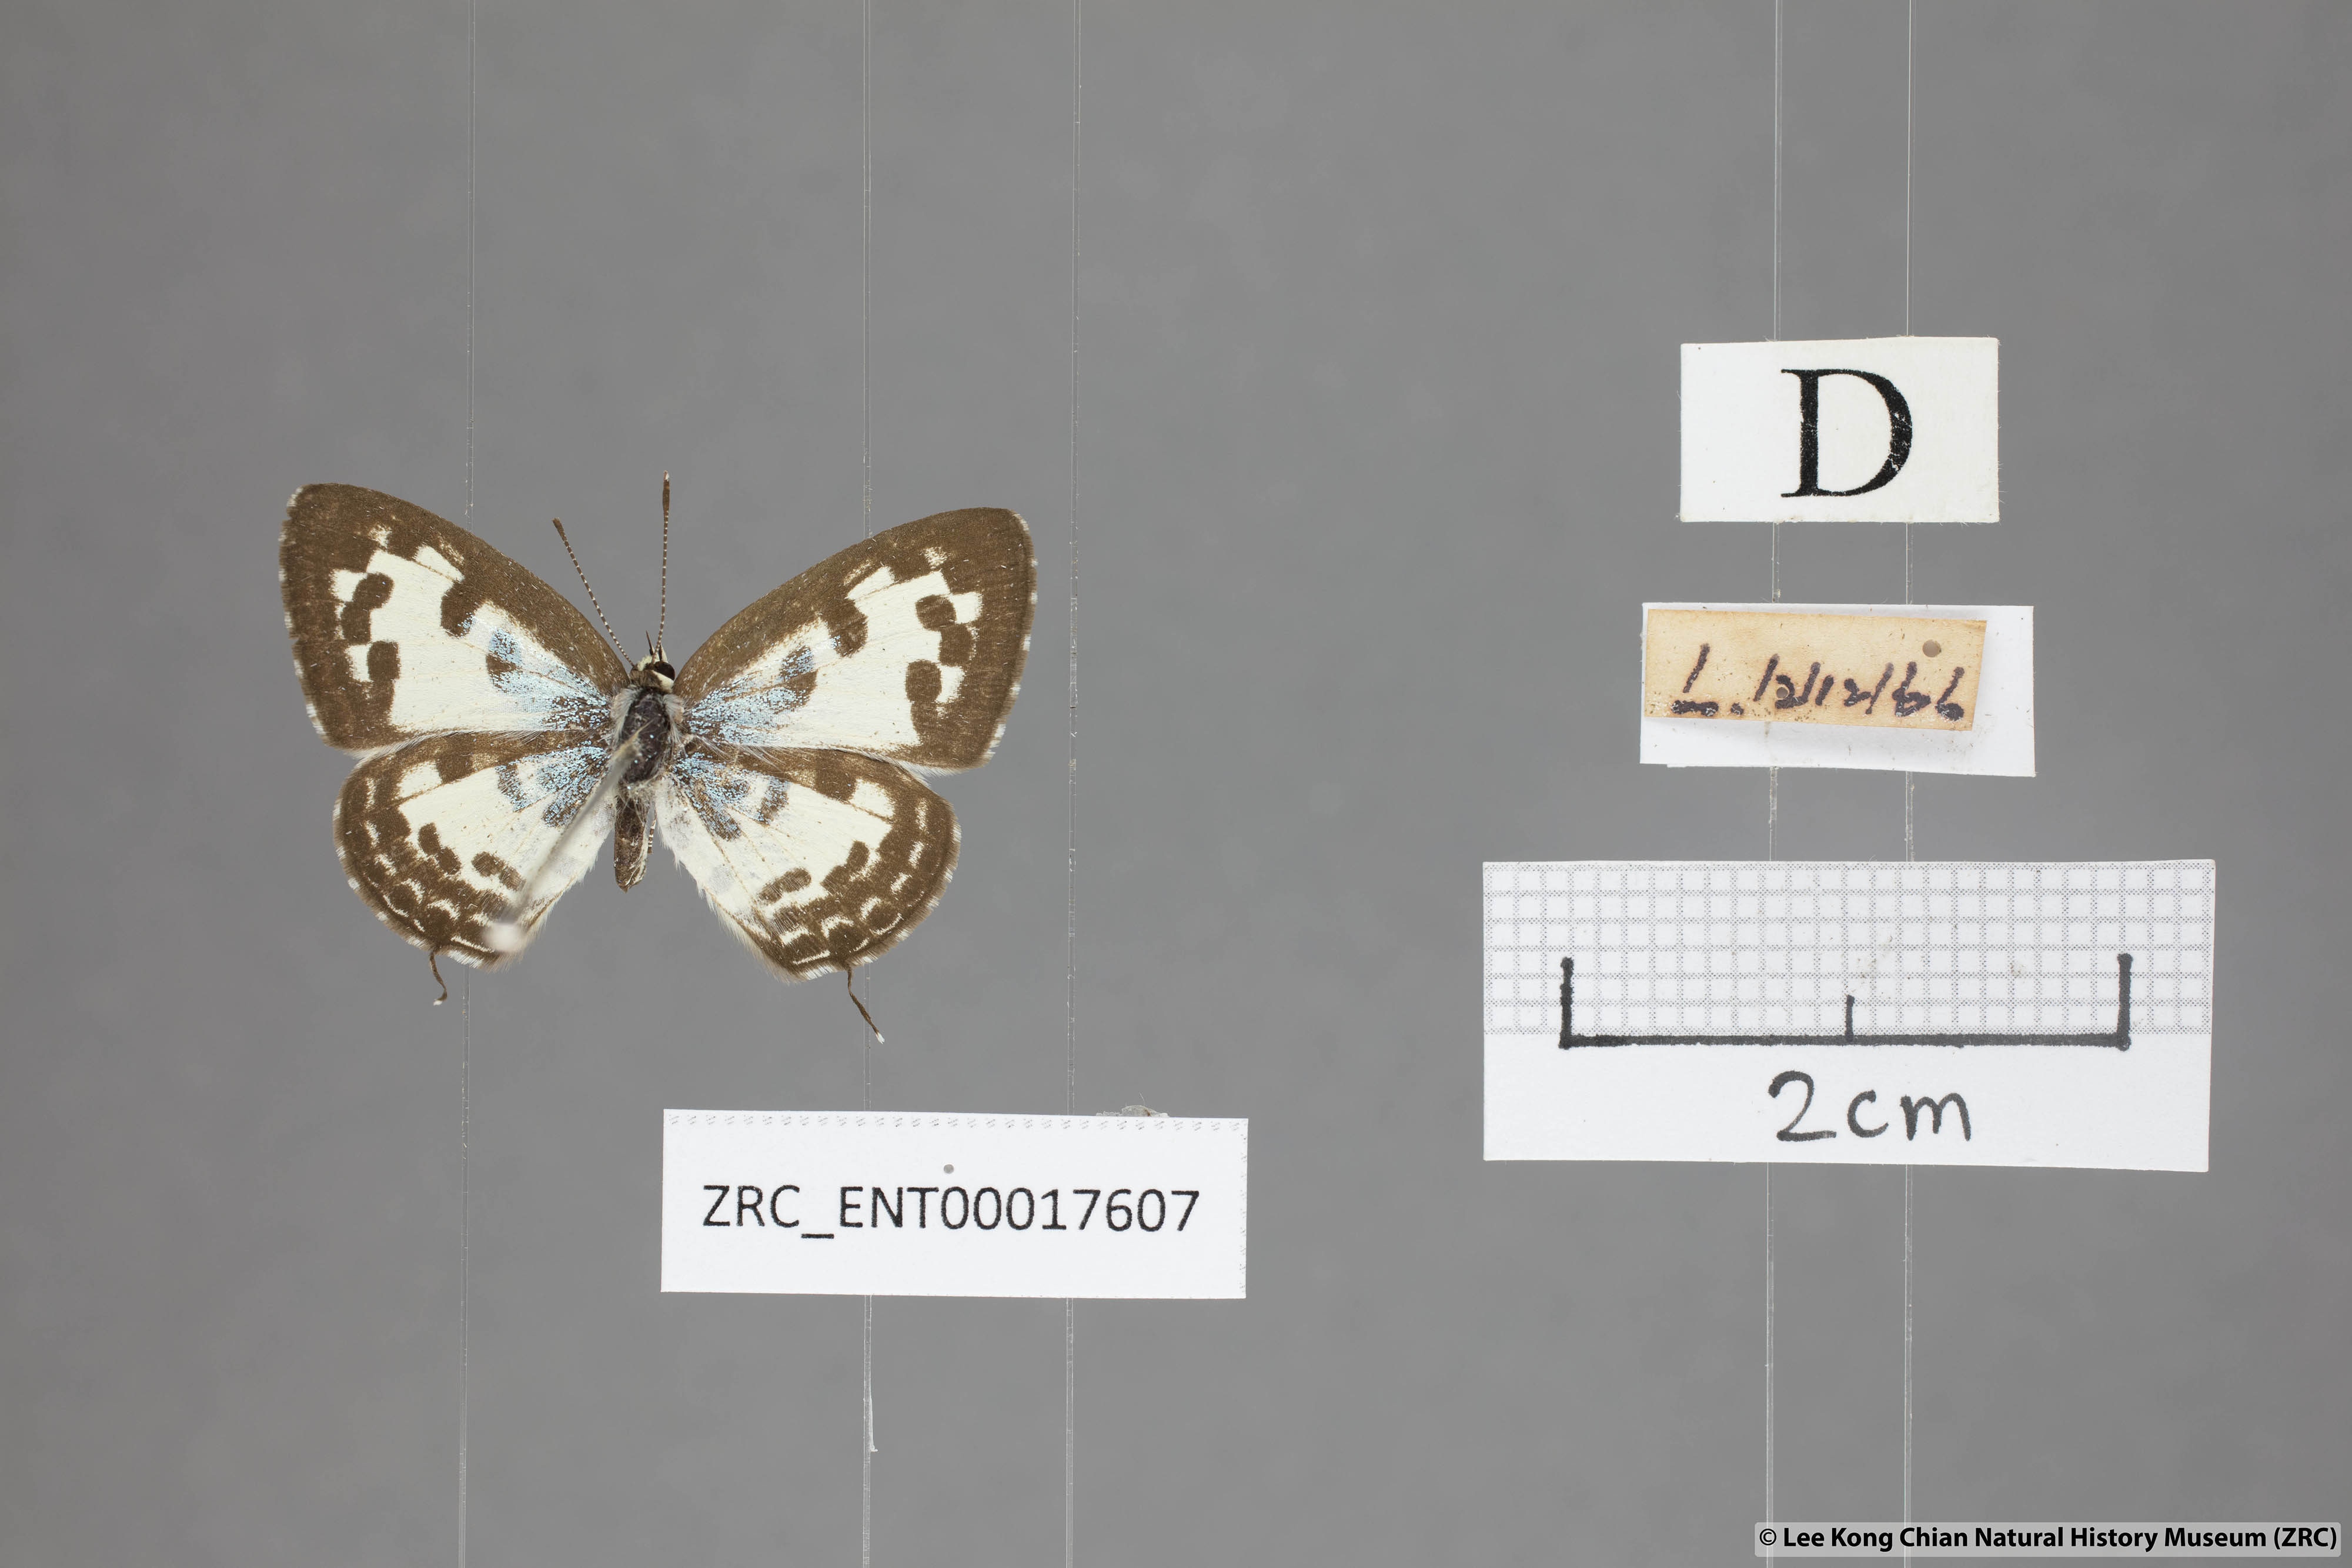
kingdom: Animalia
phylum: Arthropoda
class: Insecta
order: Lepidoptera
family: Lycaenidae
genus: Castalius
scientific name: Castalius rosimon
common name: Common pierrot
